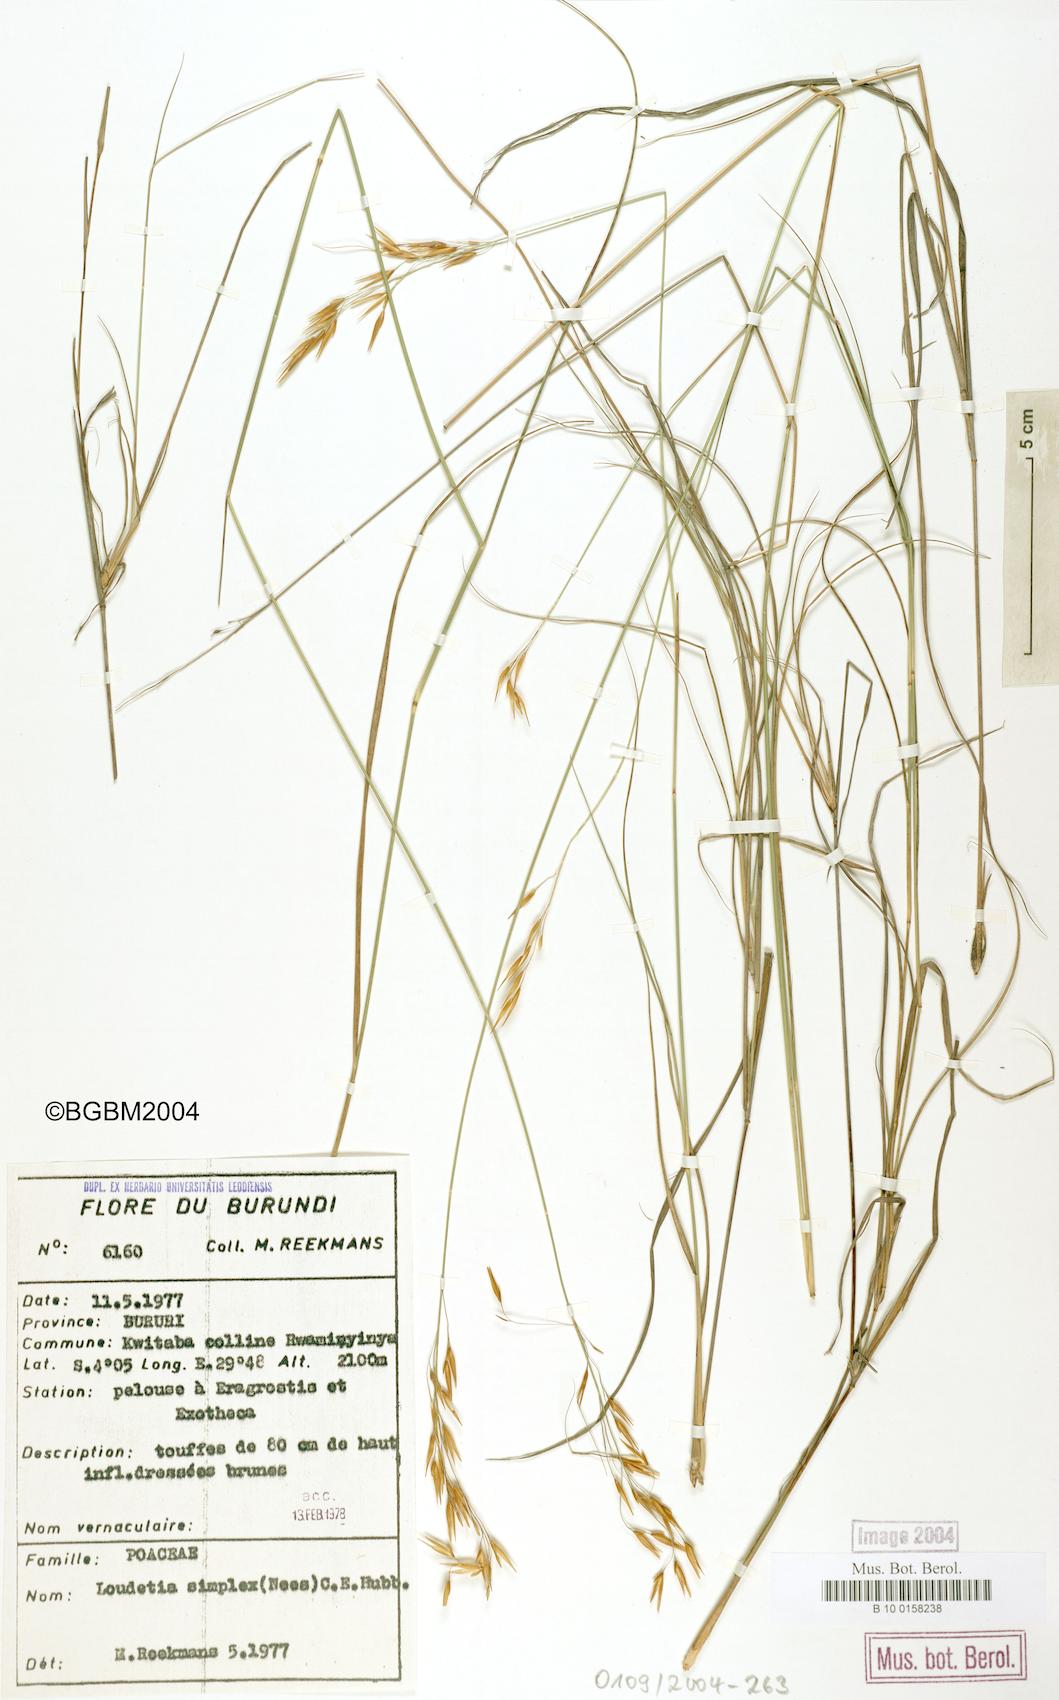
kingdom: Plantae
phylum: Tracheophyta
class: Liliopsida
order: Poales
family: Poaceae
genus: Loudetia
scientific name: Loudetia simplex
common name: Common russet grass
